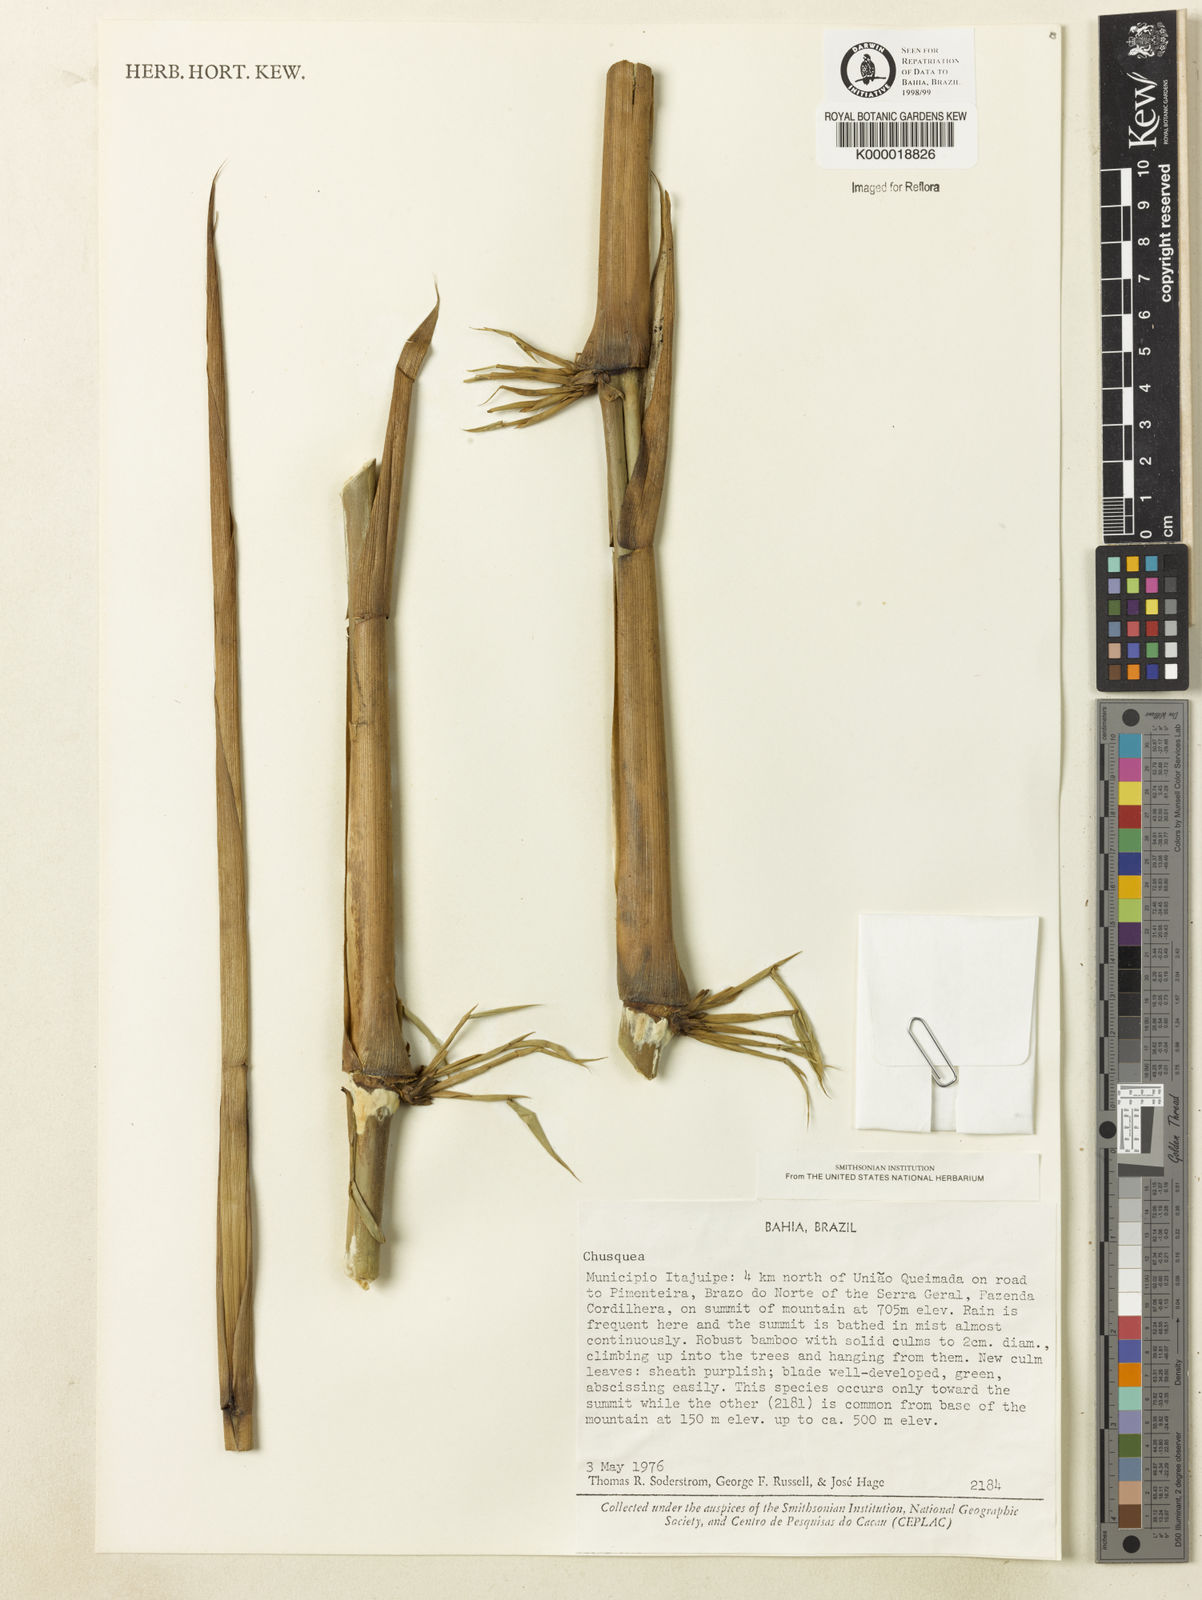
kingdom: Plantae
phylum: Tracheophyta
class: Liliopsida
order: Poales
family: Poaceae
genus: Chusquea
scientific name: Chusquea
